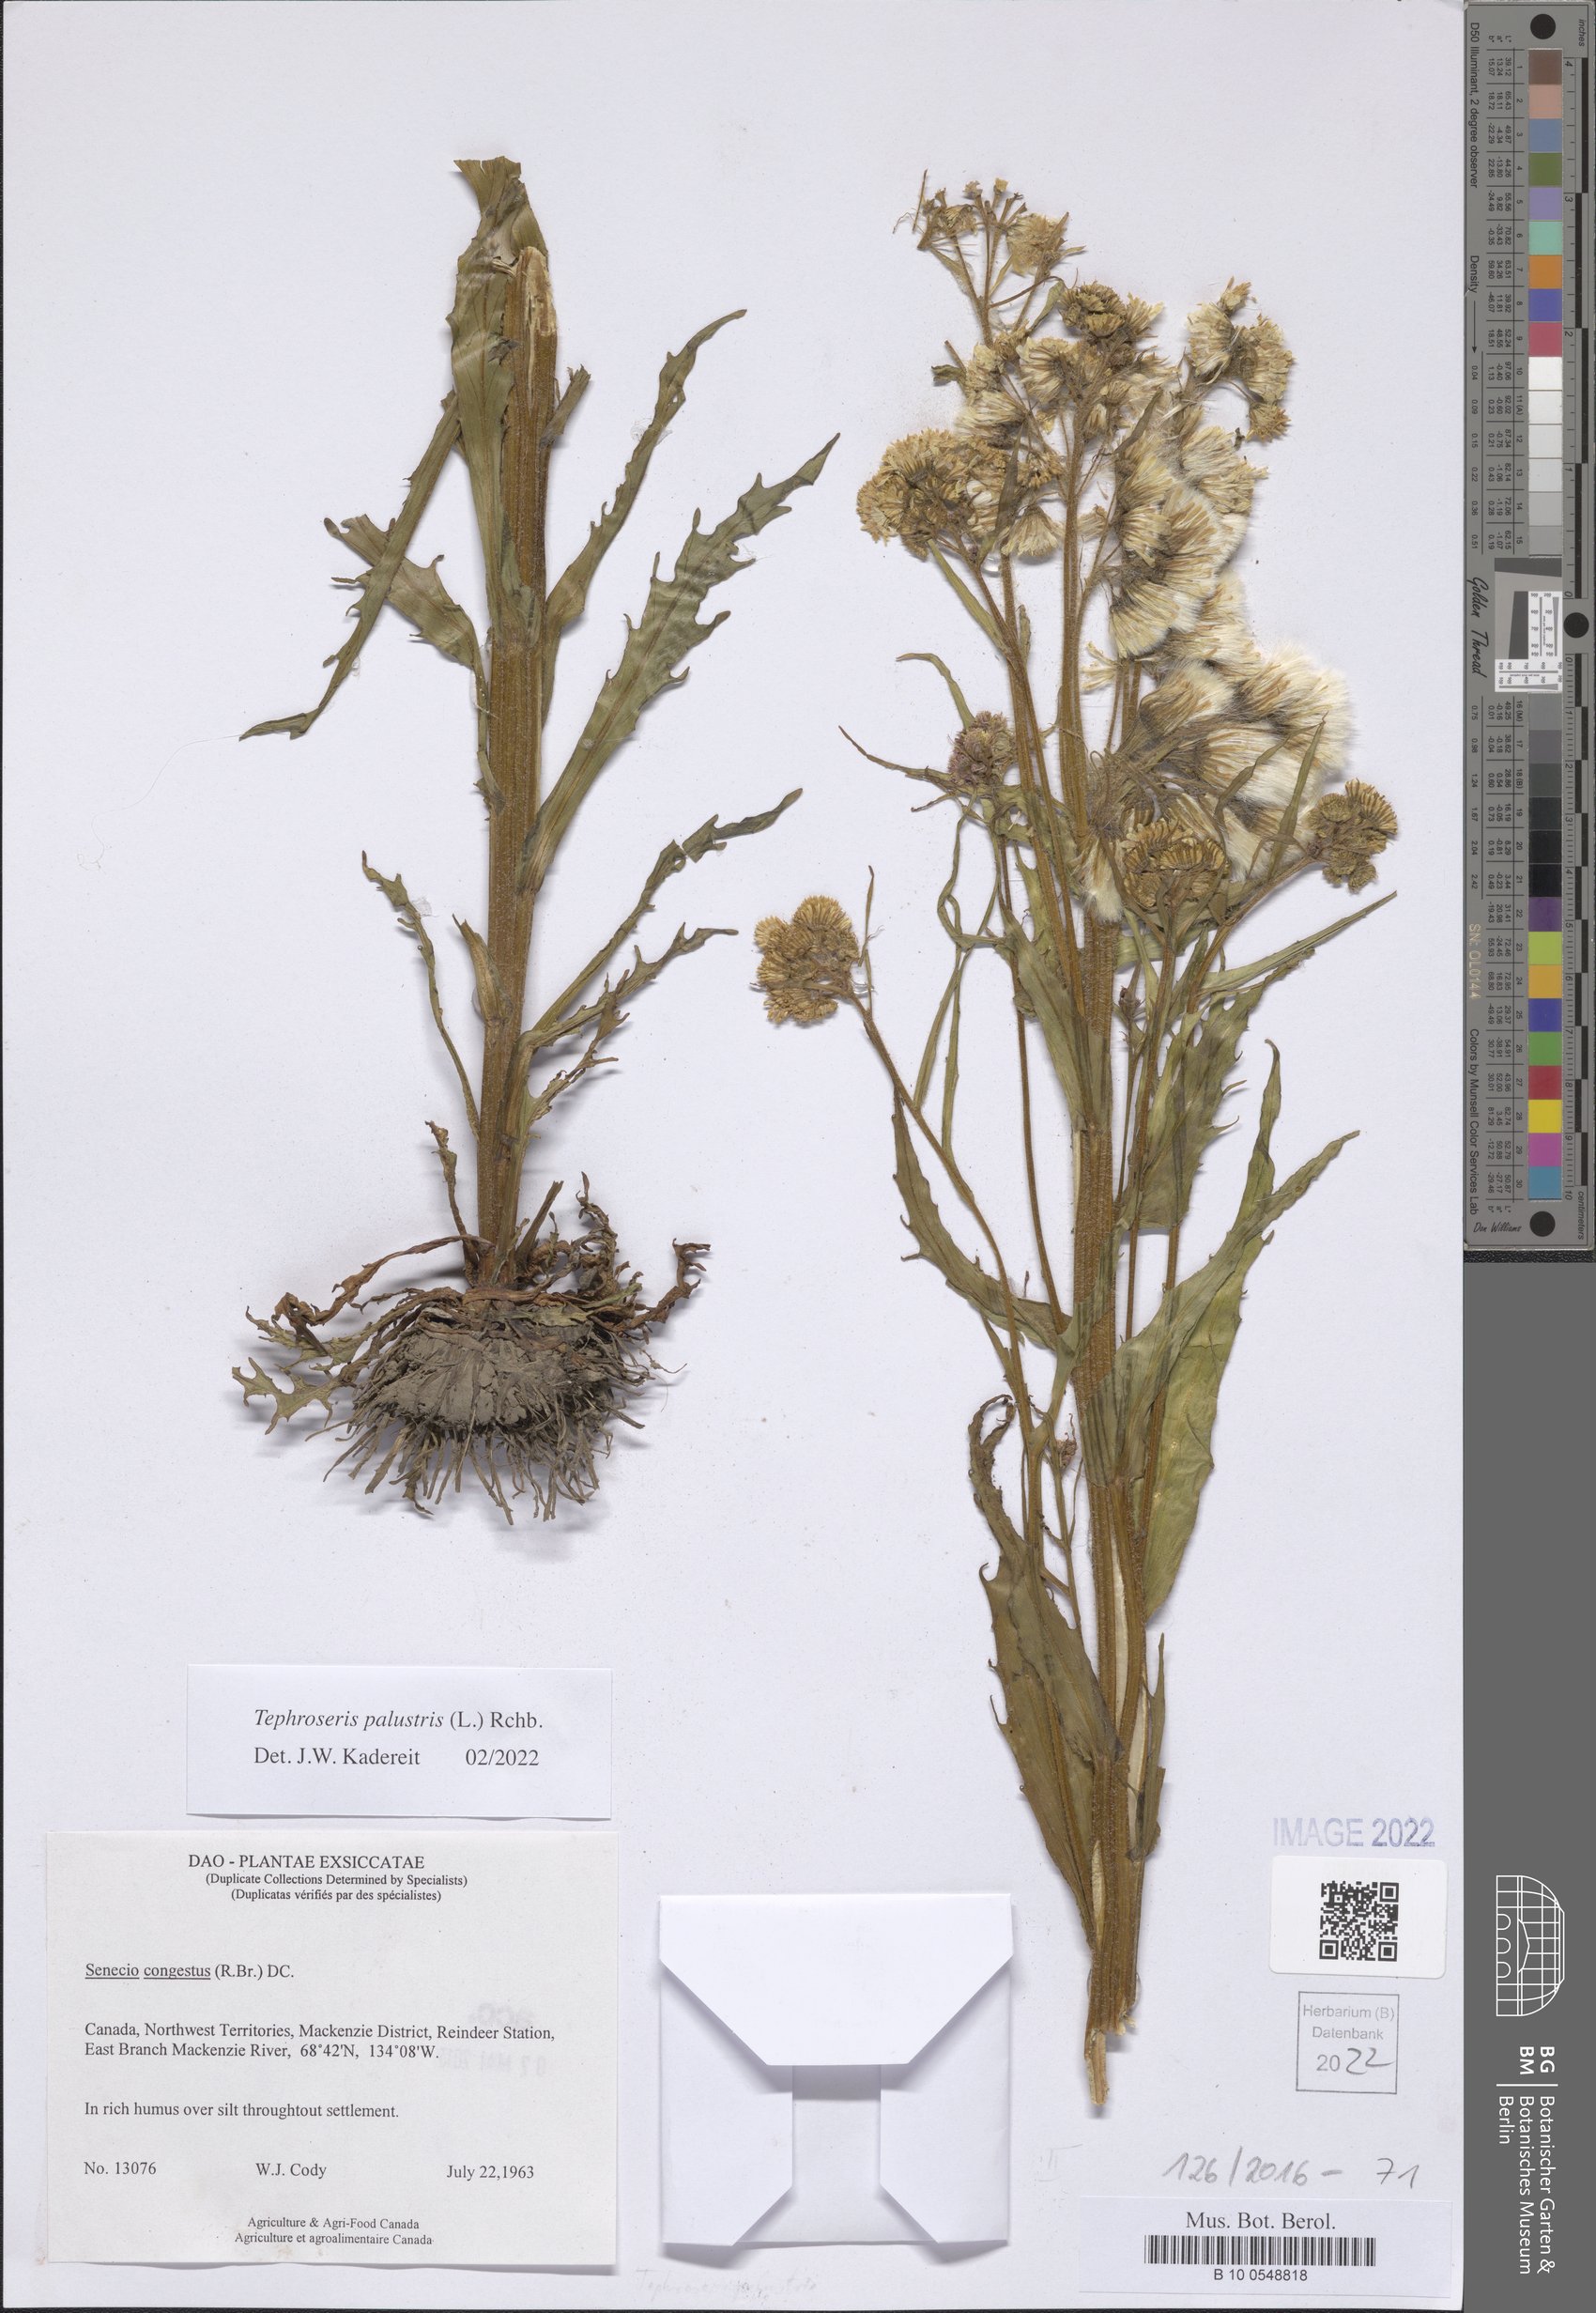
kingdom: Plantae
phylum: Tracheophyta
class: Magnoliopsida
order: Asterales
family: Asteraceae
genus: Tephroseris
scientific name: Tephroseris palustris
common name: Marsh fleawort
